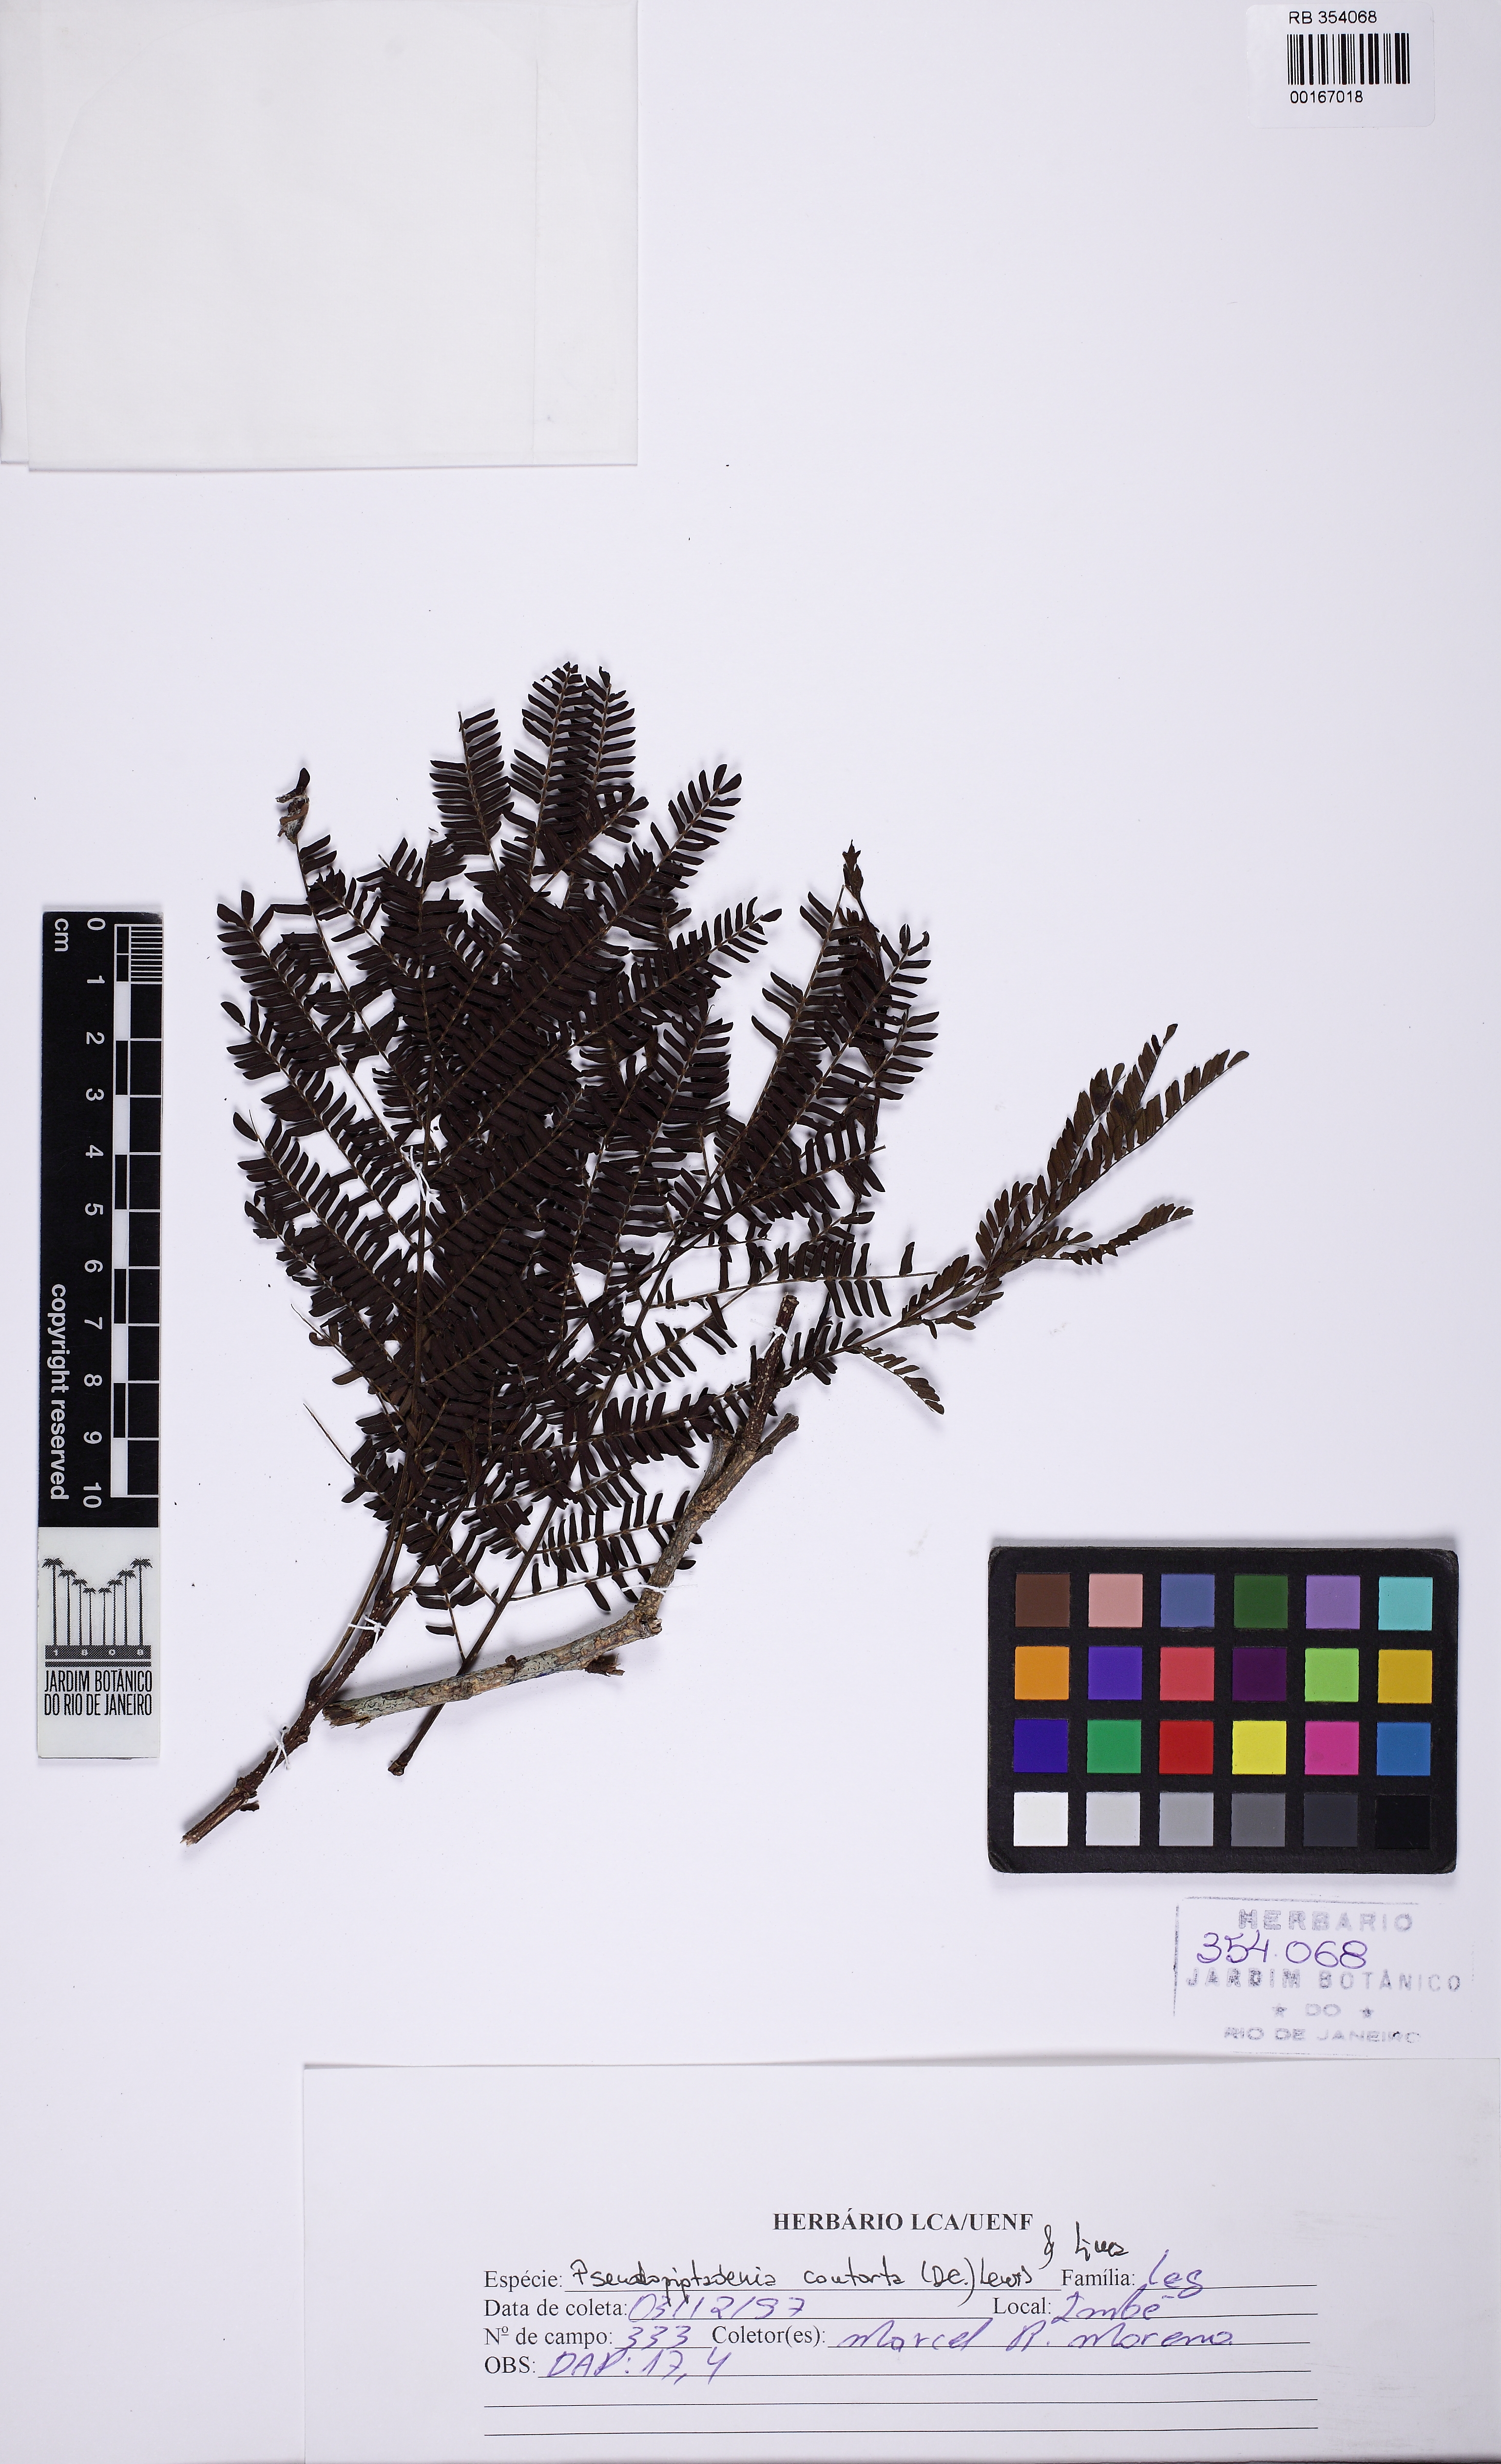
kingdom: Plantae
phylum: Tracheophyta
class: Magnoliopsida
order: Fabales
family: Fabaceae
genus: Pseudopiptadenia
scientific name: Pseudopiptadenia contorta
